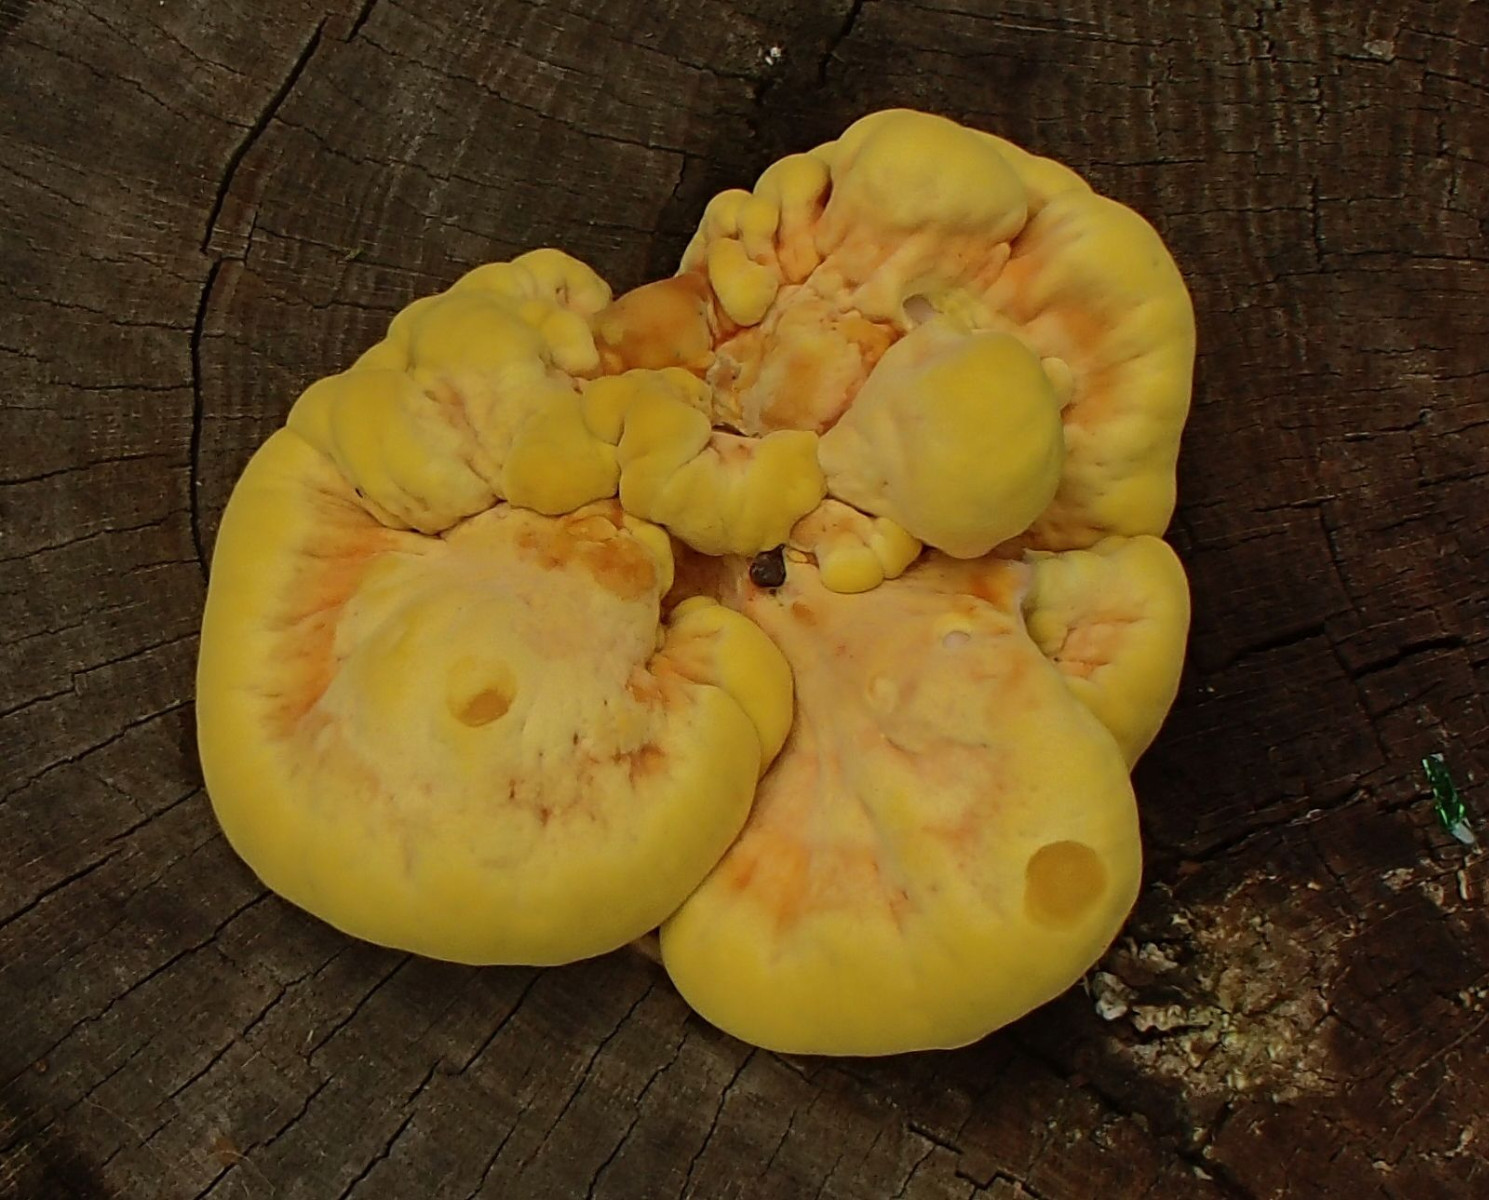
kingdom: Fungi
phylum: Basidiomycota
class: Agaricomycetes
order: Polyporales
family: Laetiporaceae
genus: Laetiporus
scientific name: Laetiporus sulphureus
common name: svovlporesvamp
